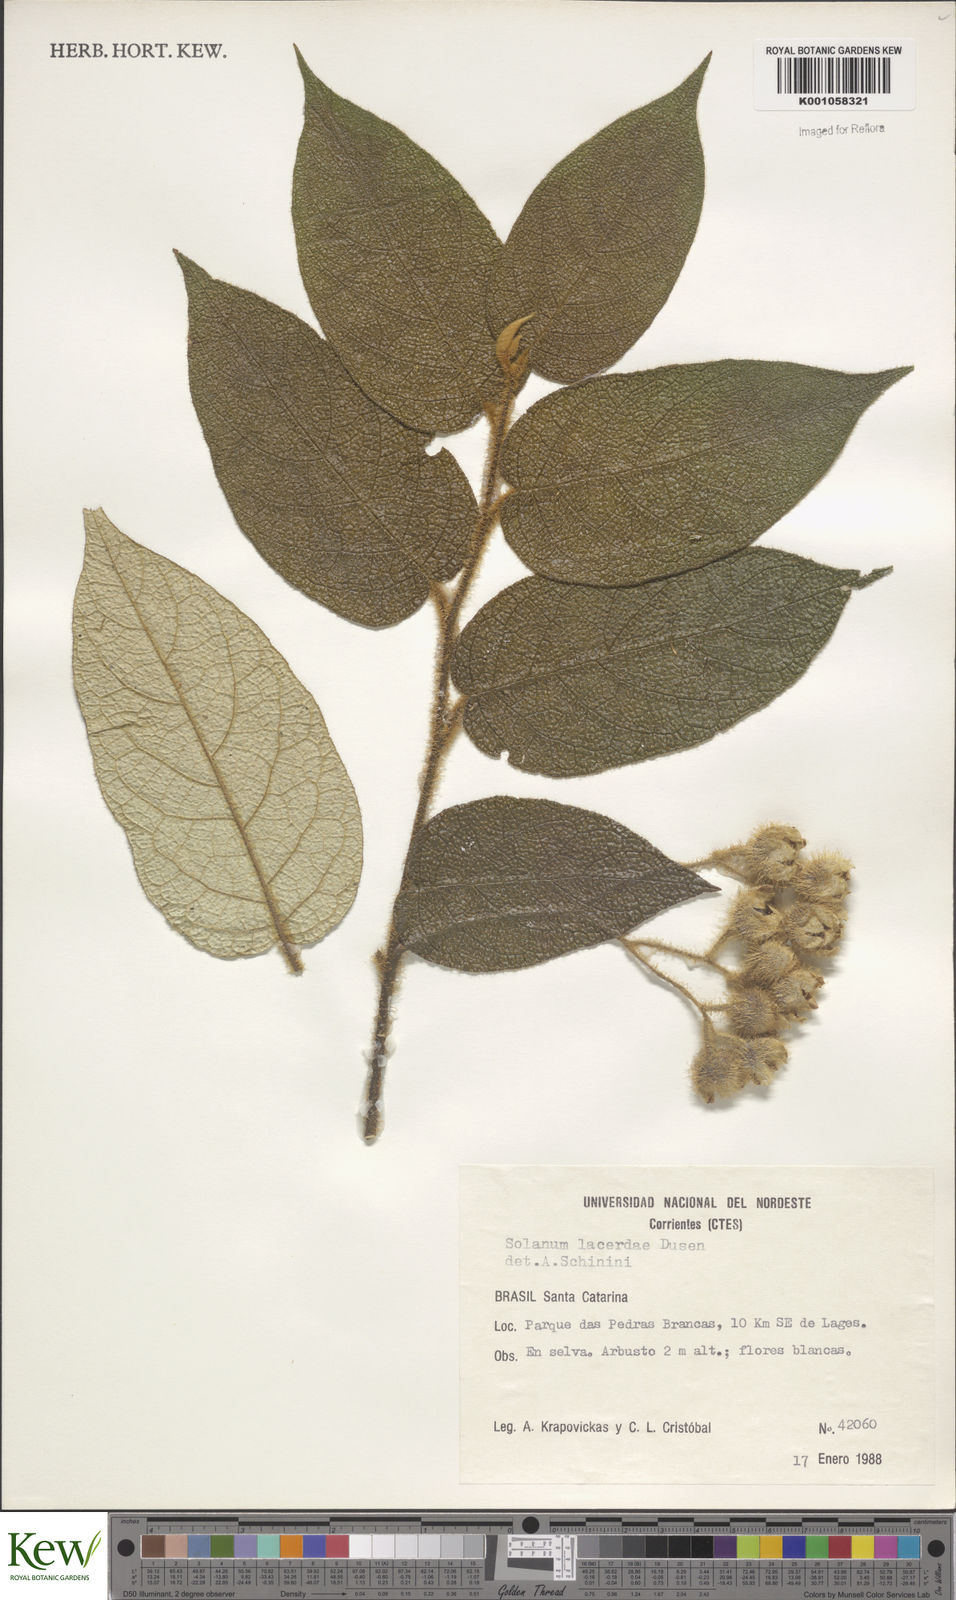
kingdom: Plantae
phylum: Tracheophyta
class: Magnoliopsida
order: Solanales
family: Solanaceae
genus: Solanum
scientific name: Solanum
